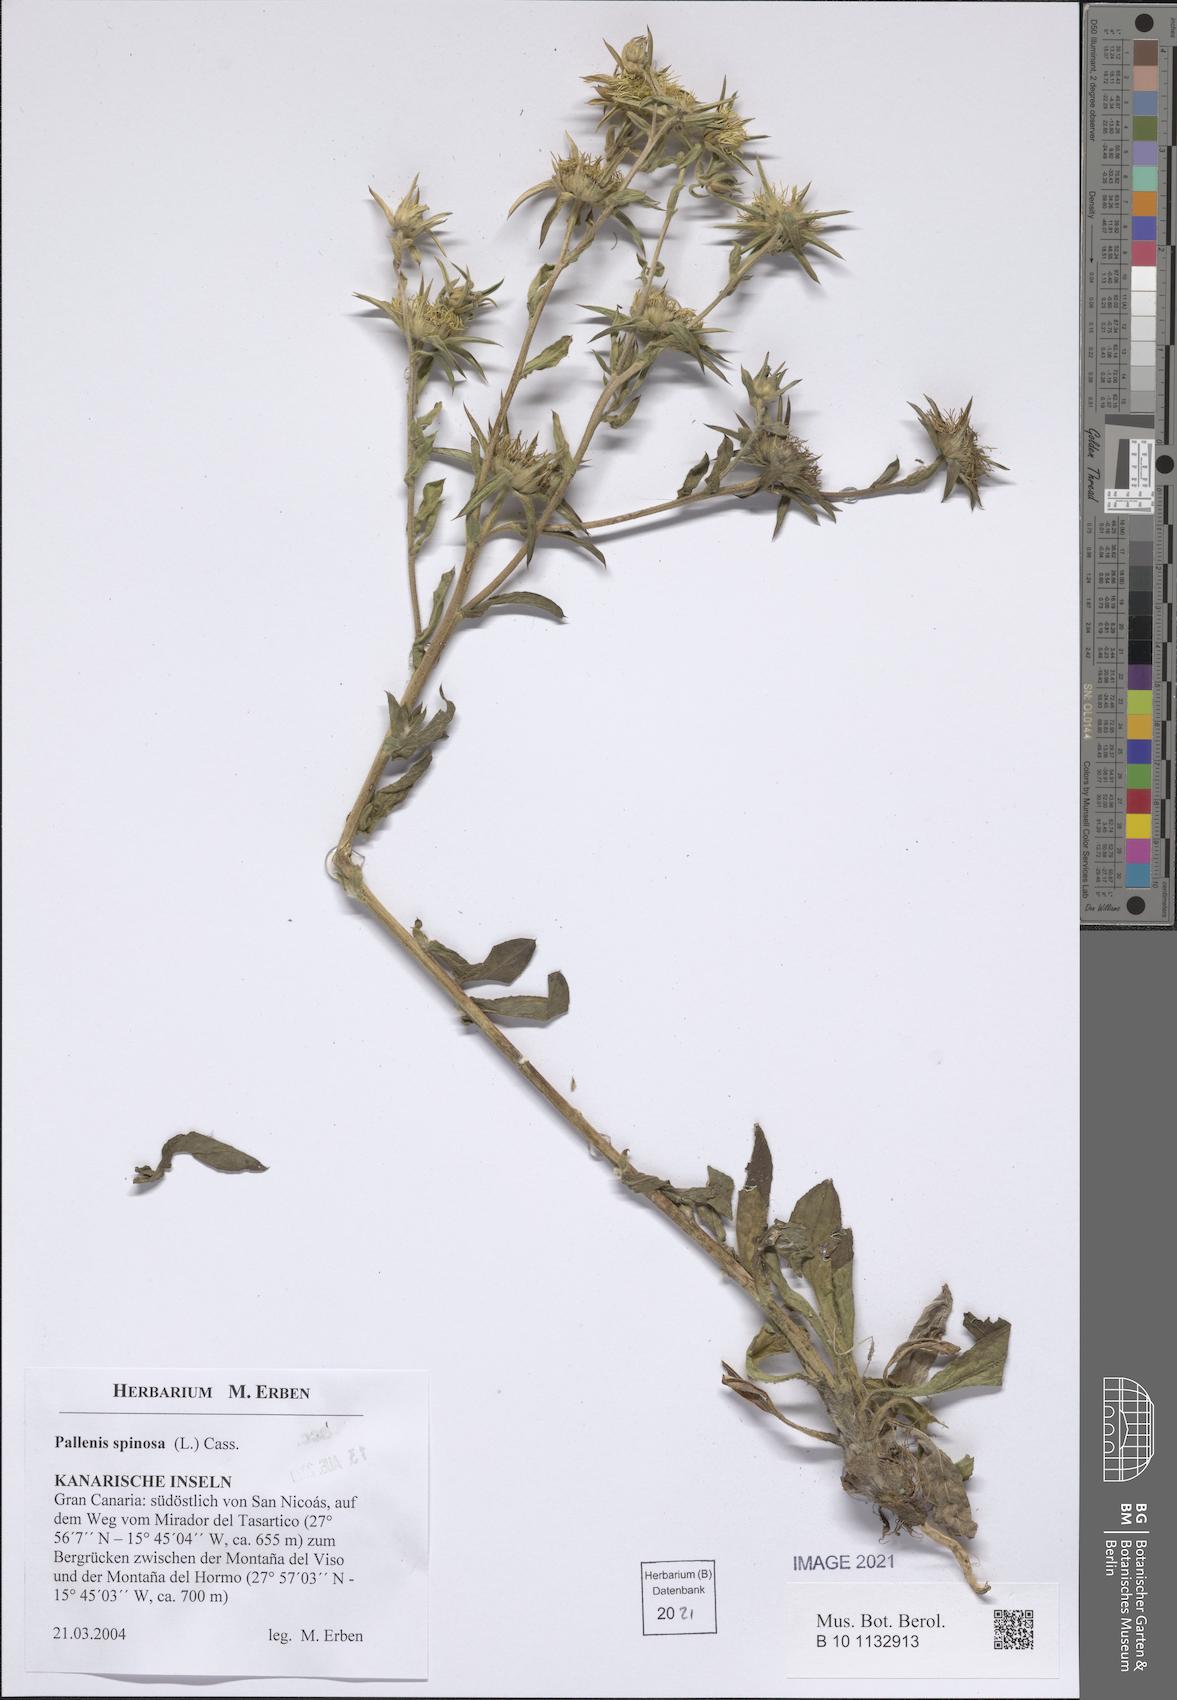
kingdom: Plantae
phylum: Tracheophyta
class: Magnoliopsida
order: Asterales
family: Asteraceae
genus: Pallenis
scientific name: Pallenis spinosa
